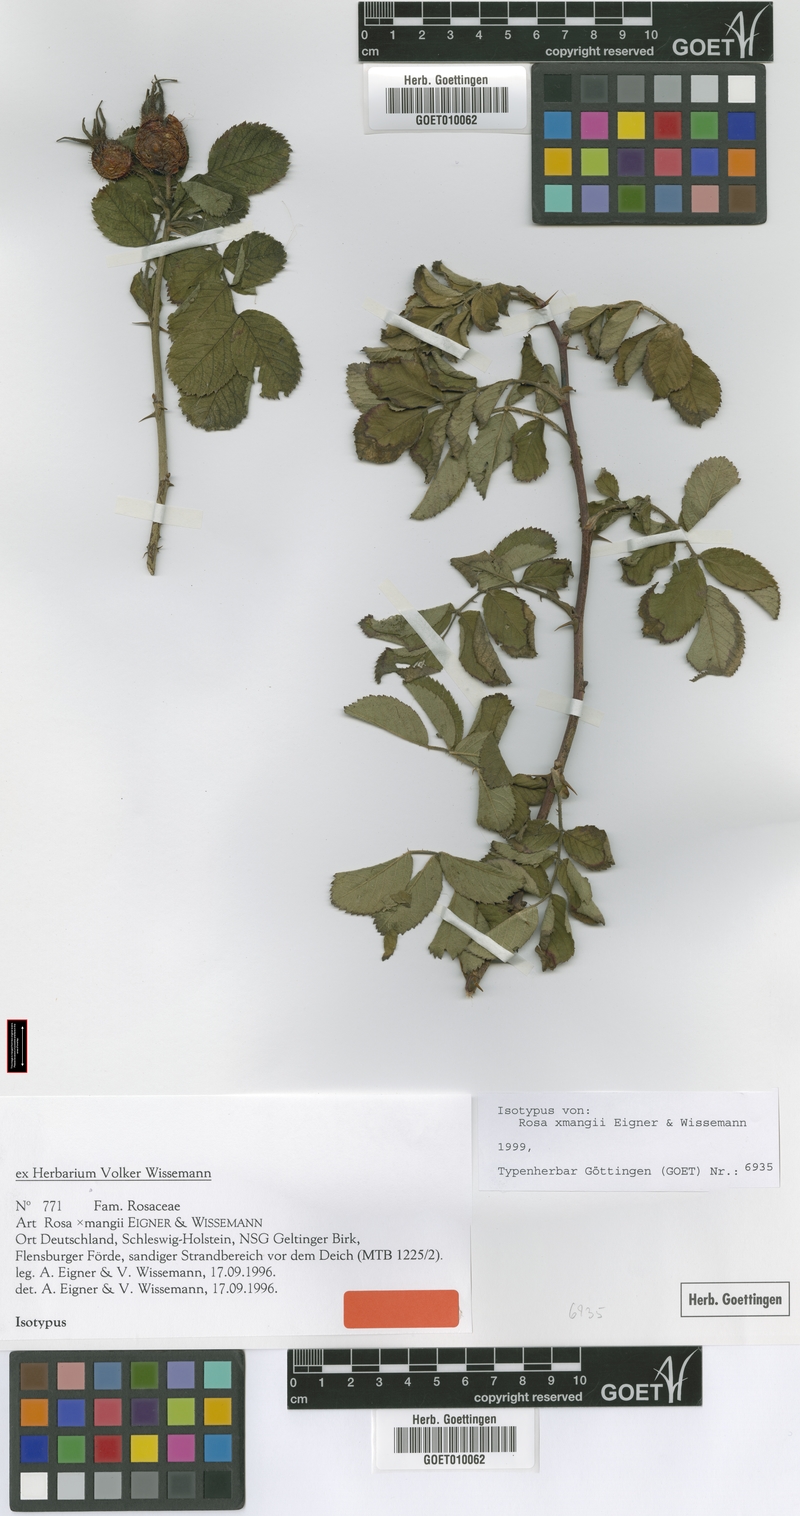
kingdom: Plantae
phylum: Tracheophyta
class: Magnoliopsida
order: Rosales
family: Rosaceae
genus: Rosa
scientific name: Rosa mangii
